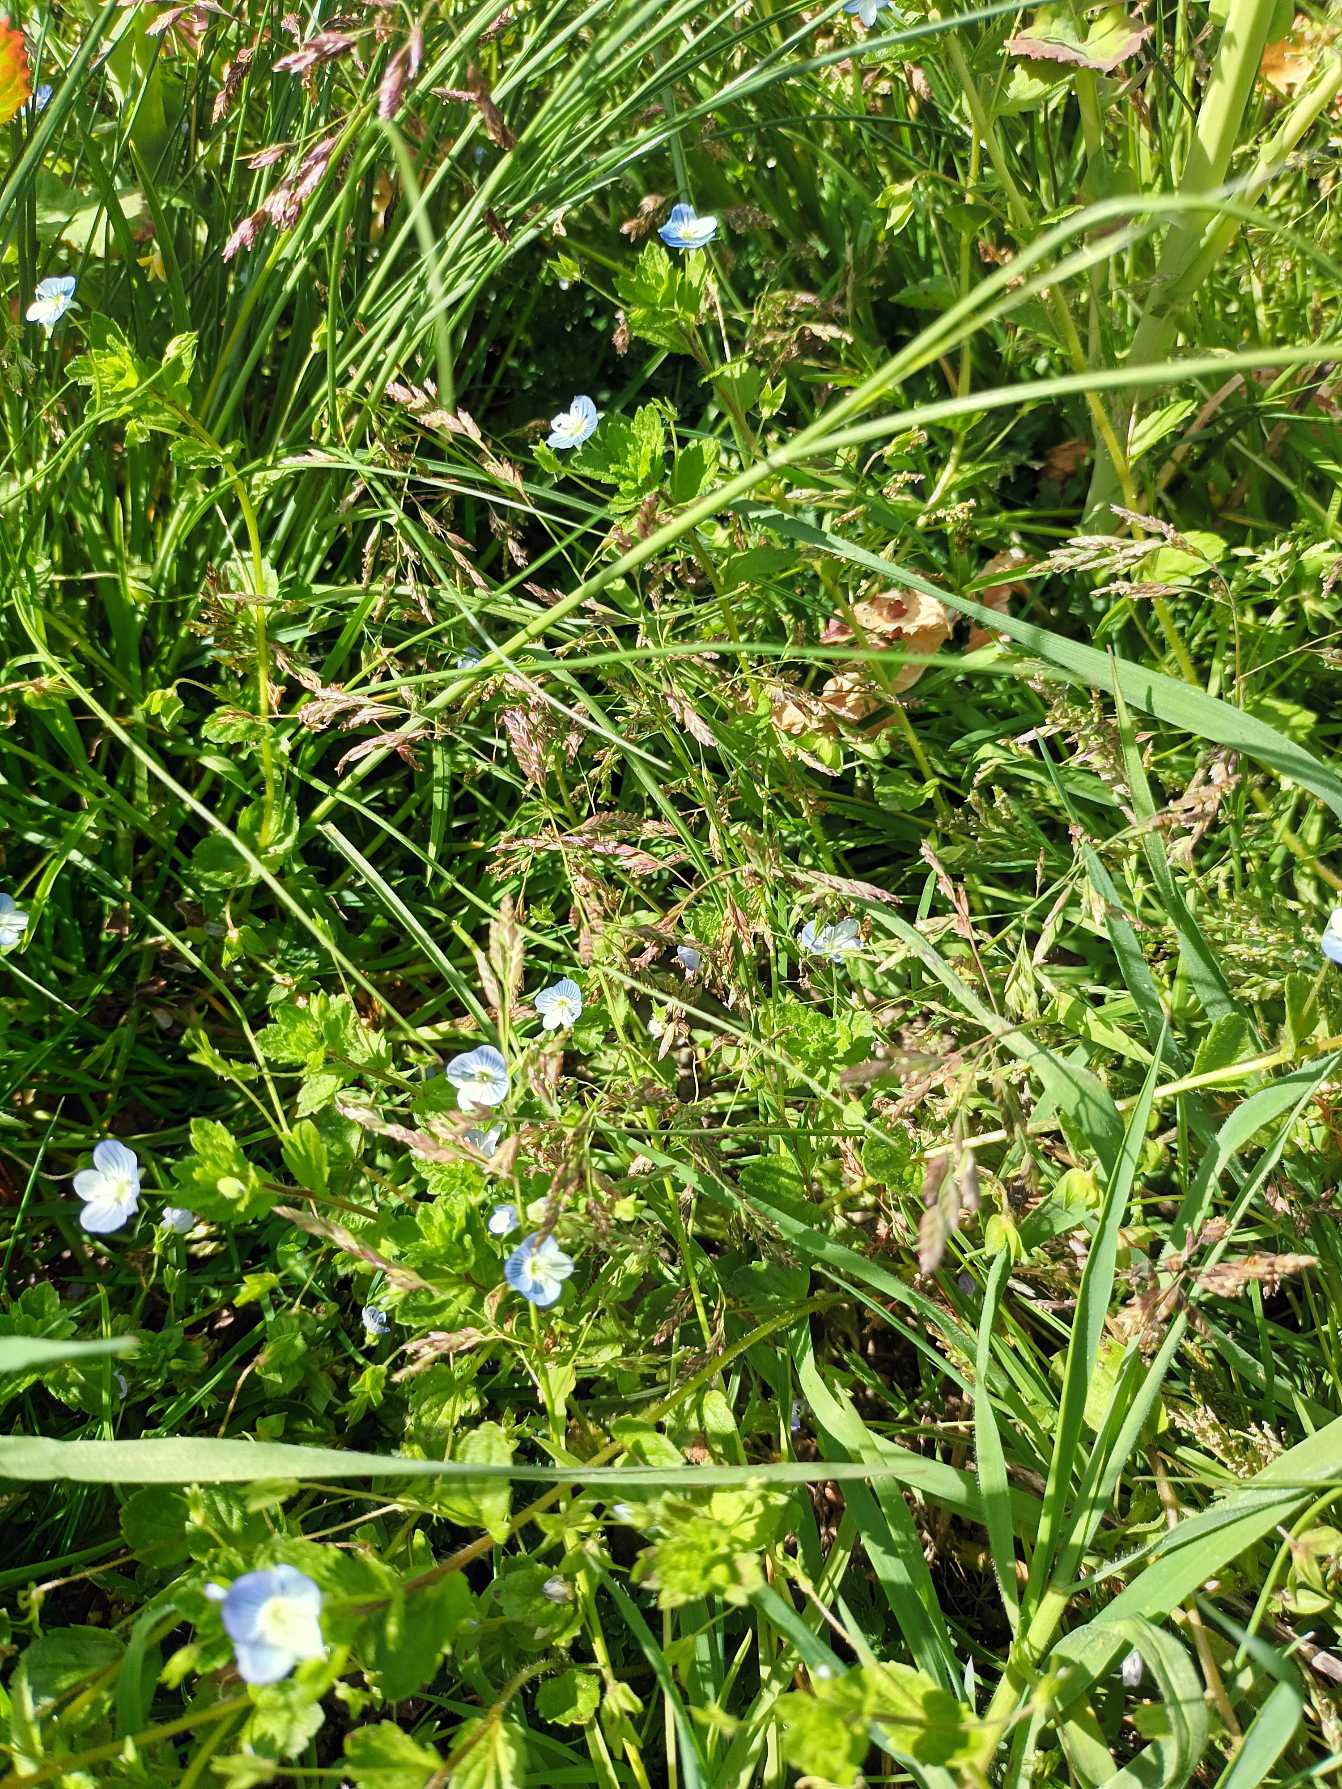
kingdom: Plantae
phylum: Tracheophyta
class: Liliopsida
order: Poales
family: Poaceae
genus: Poa
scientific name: Poa annua
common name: Enårig rapgræs
